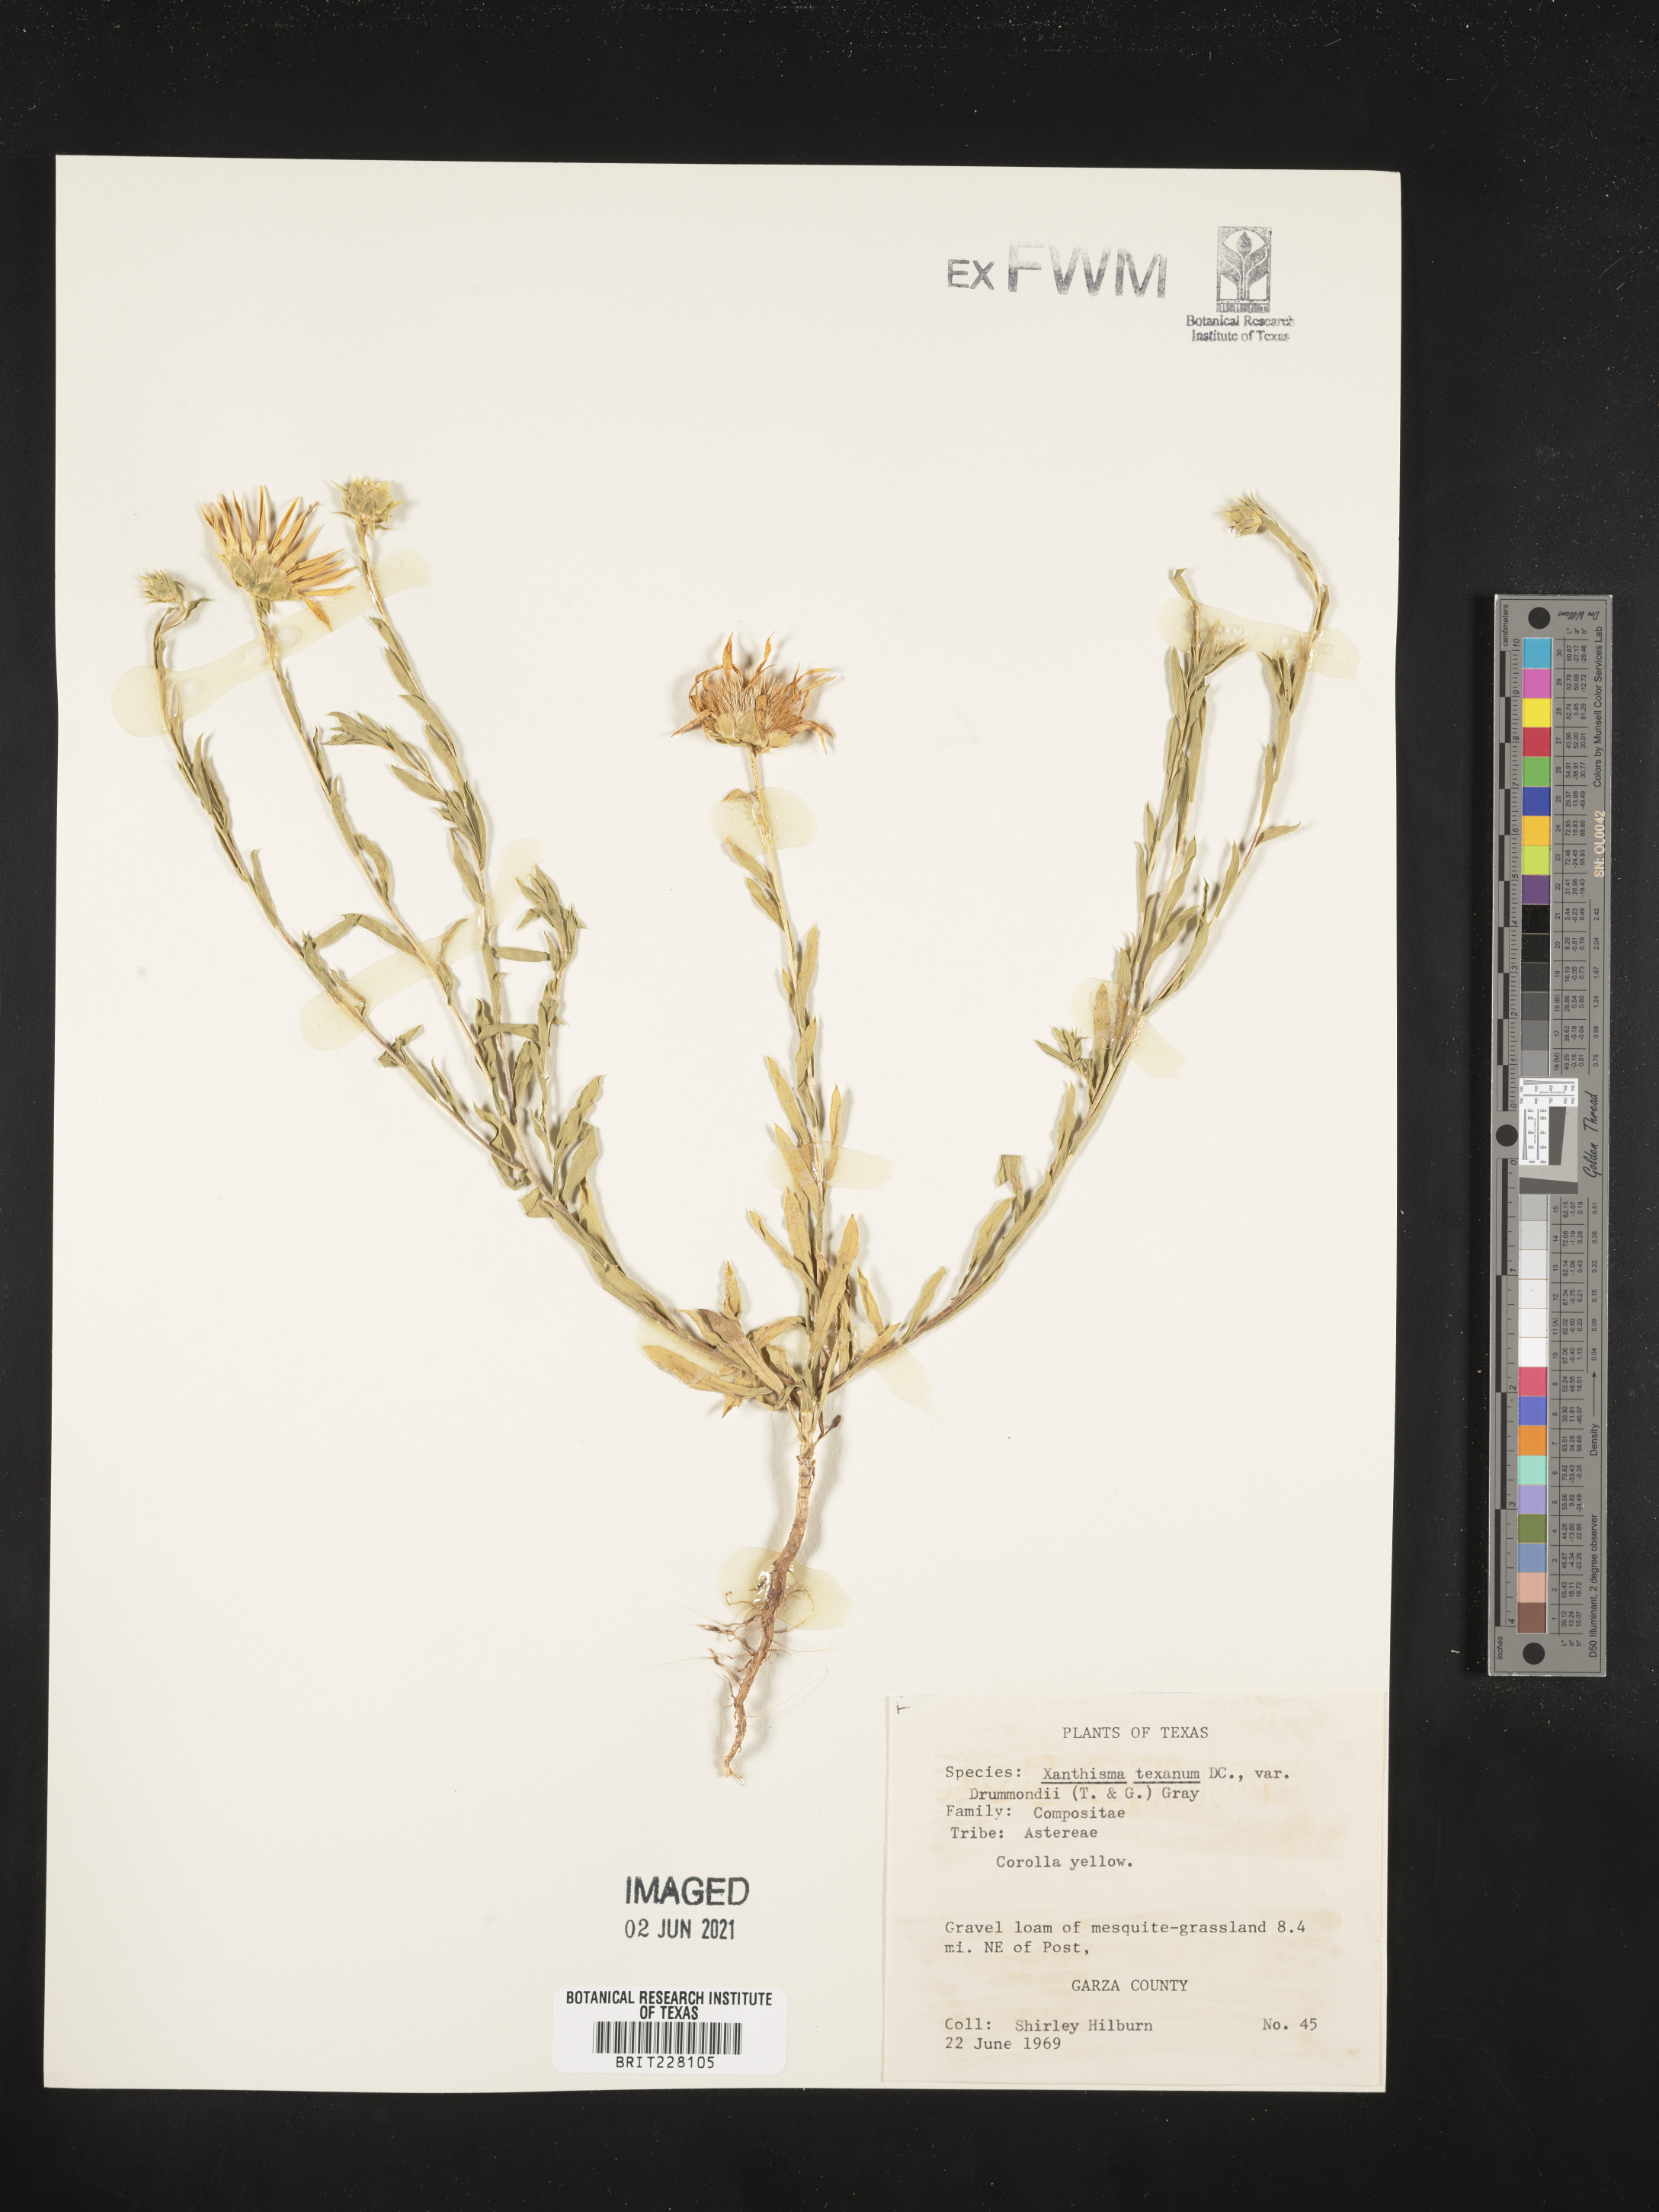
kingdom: Plantae
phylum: Tracheophyta
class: Magnoliopsida
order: Asterales
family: Asteraceae
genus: Xanthisma
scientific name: Xanthisma texanum
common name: Texas sleepy daisy
